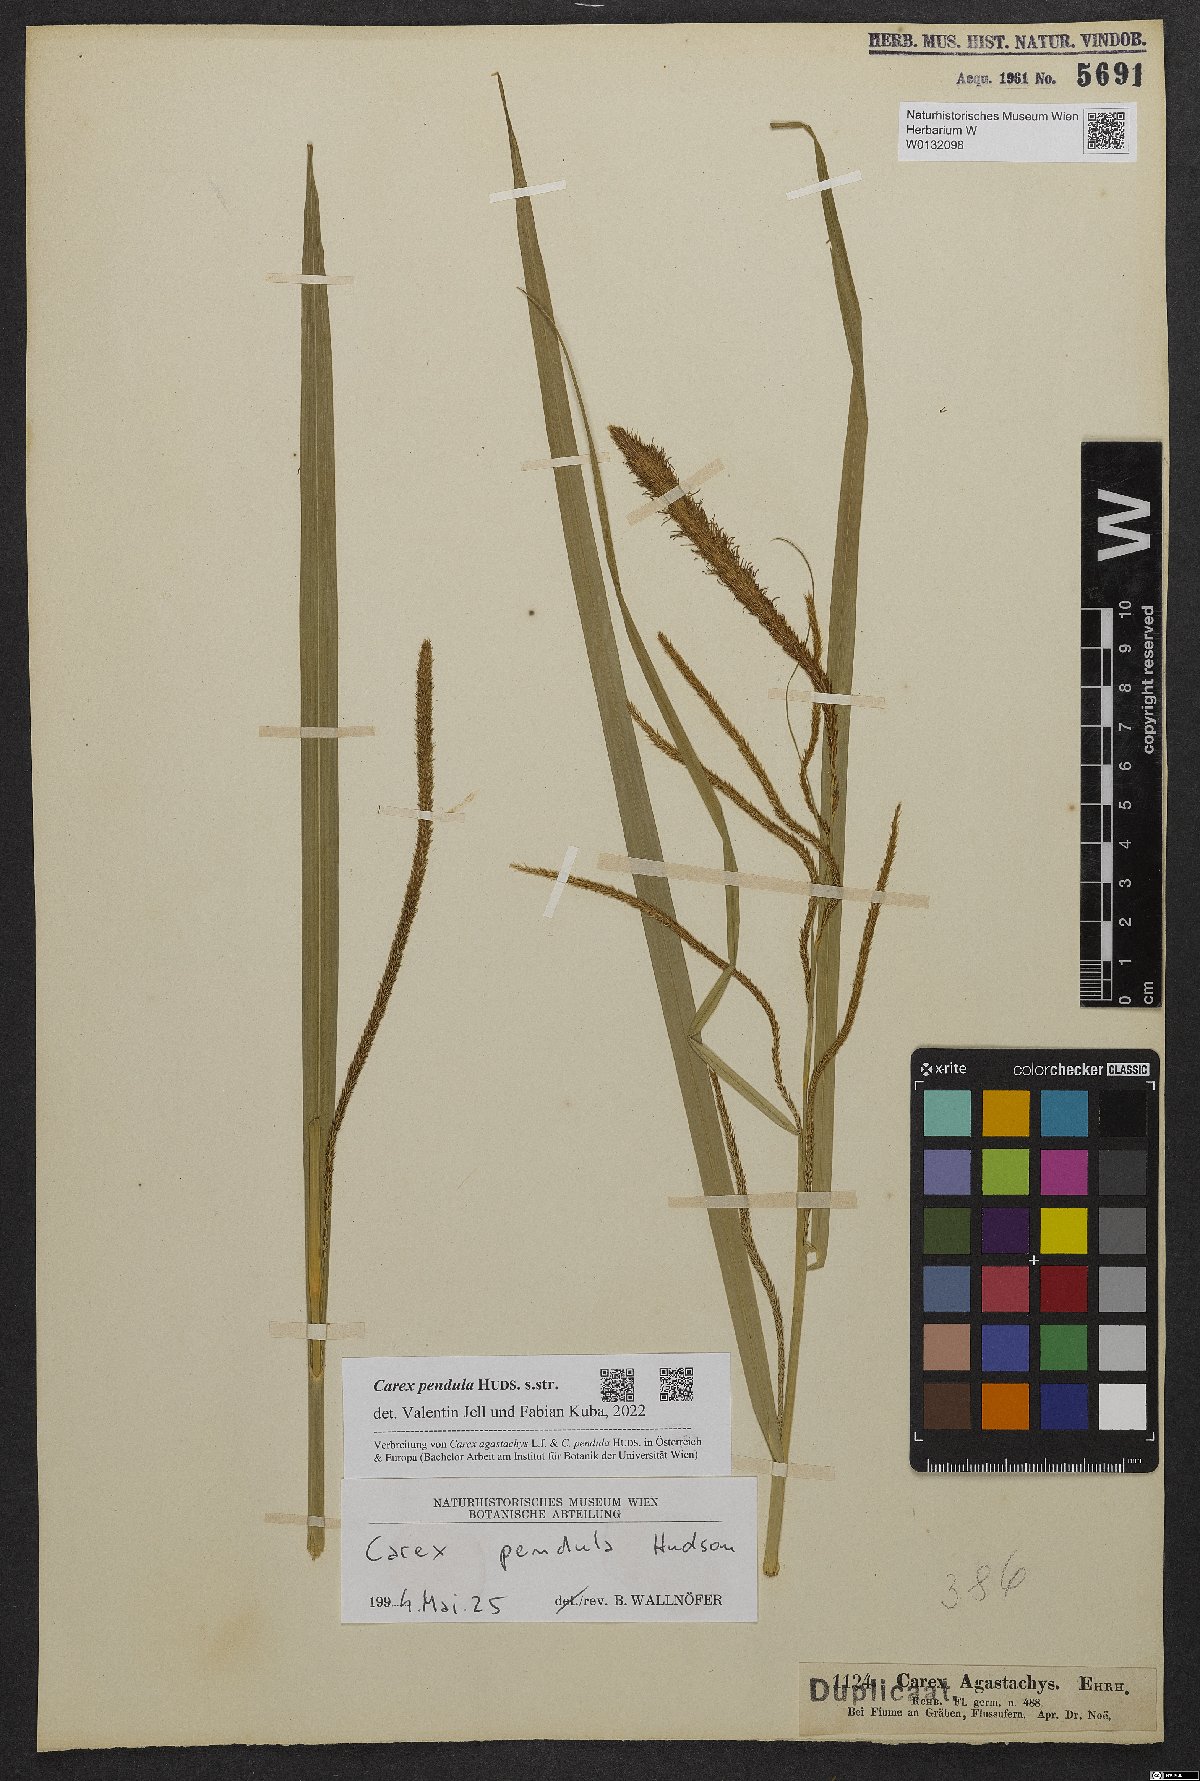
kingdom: Plantae
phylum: Tracheophyta
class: Liliopsida
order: Poales
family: Cyperaceae
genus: Carex
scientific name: Carex pendula
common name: Pendulous sedge
